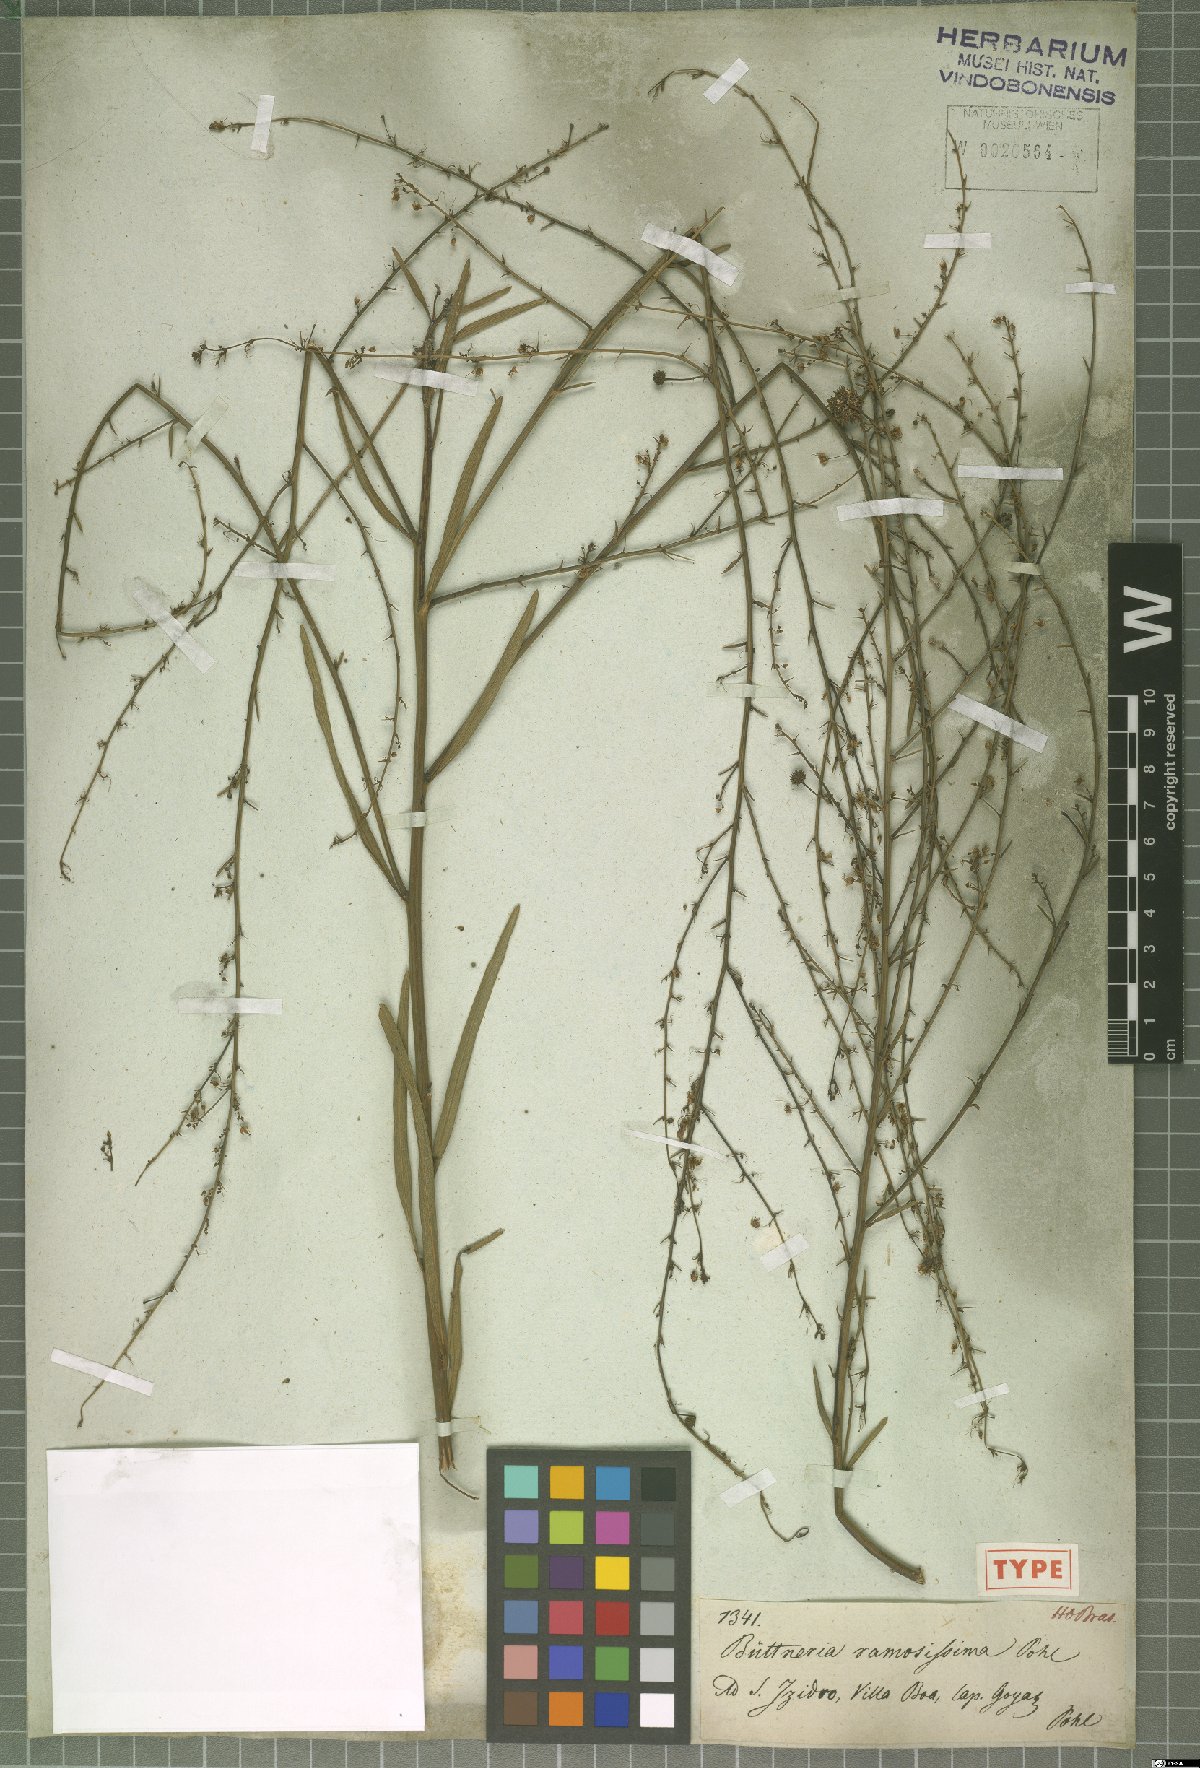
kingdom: Plantae
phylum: Tracheophyta
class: Magnoliopsida
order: Malvales
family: Malvaceae
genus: Byttneria
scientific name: Byttneria ramosissima
